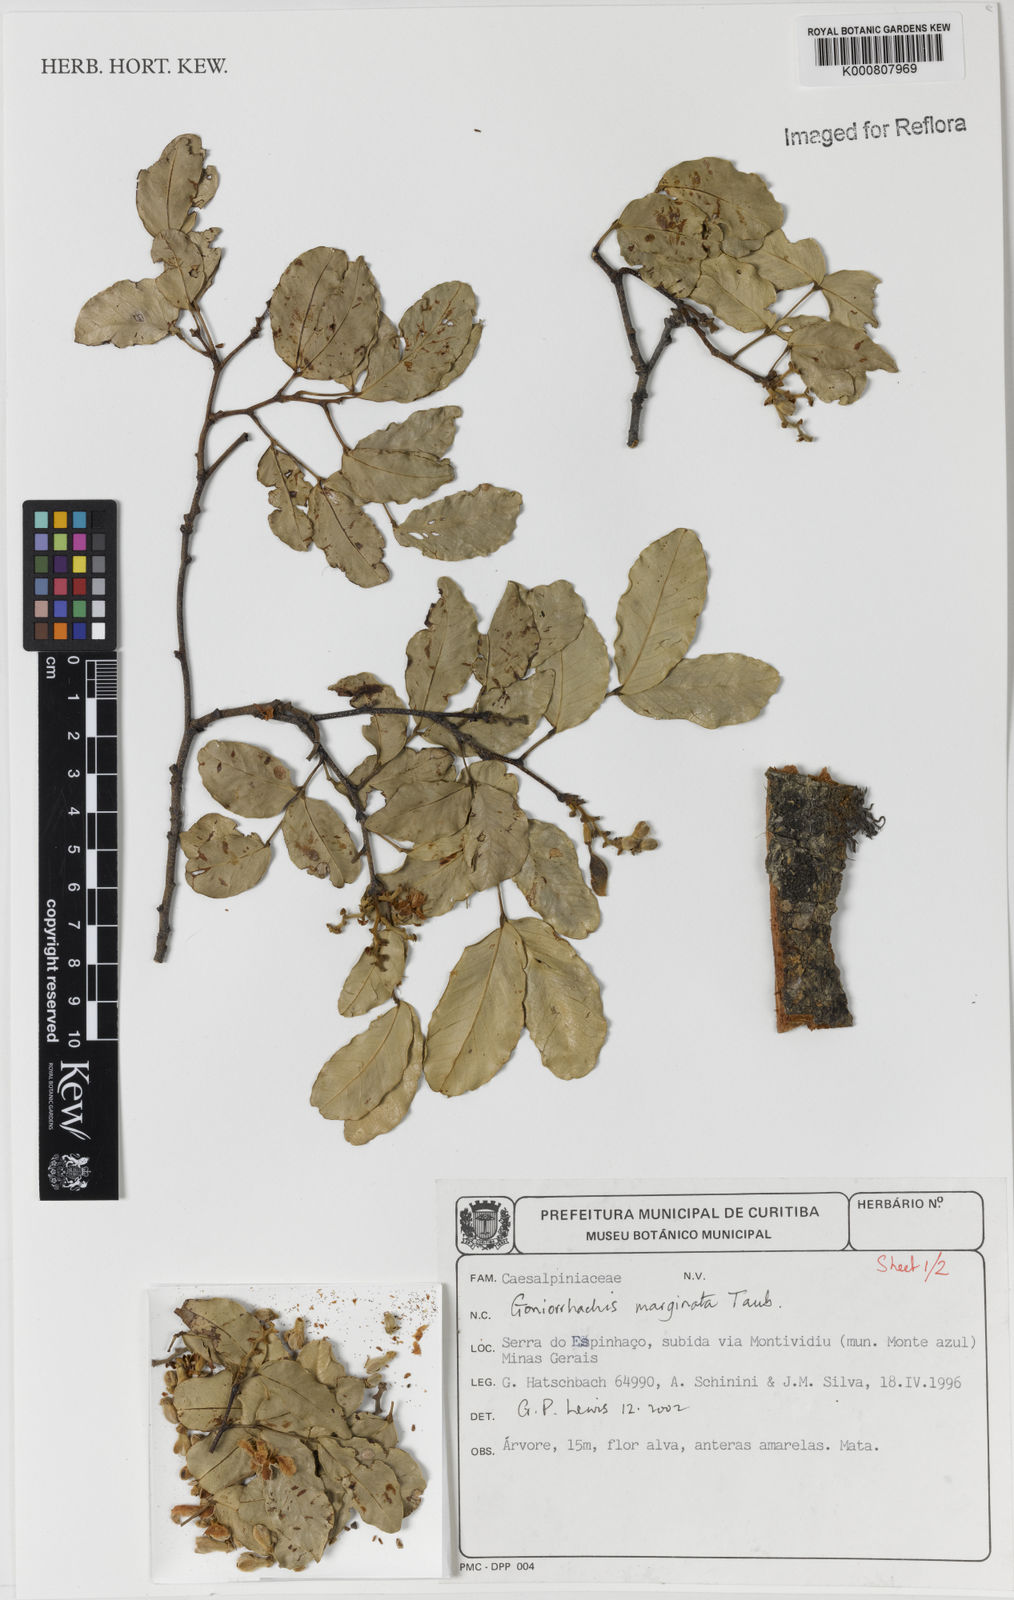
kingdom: Plantae
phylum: Tracheophyta
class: Magnoliopsida
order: Fabales
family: Fabaceae
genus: Goniorrhachis
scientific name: Goniorrhachis marginata
